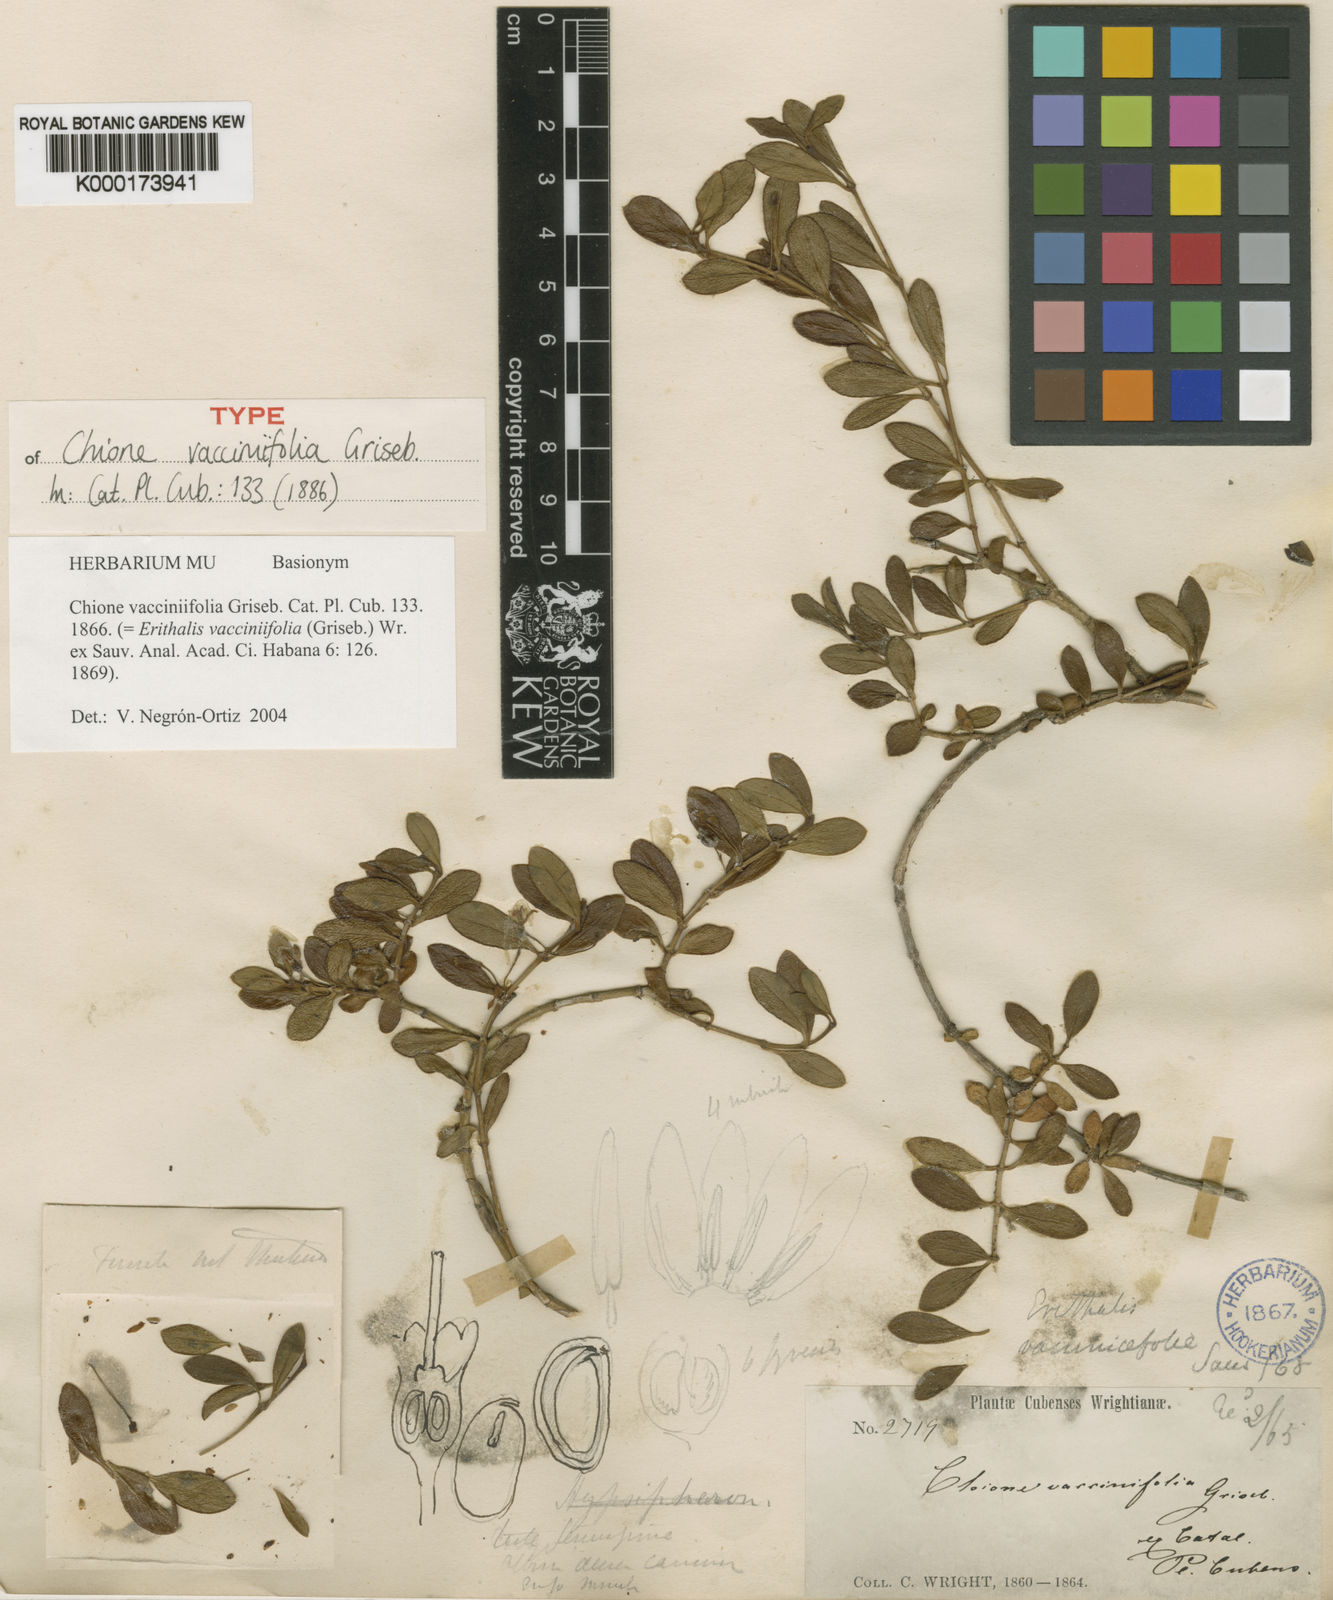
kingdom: Plantae
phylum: Tracheophyta
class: Magnoliopsida
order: Gentianales
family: Rubiaceae
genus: Erithalis
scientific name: Erithalis vacciniifolia
